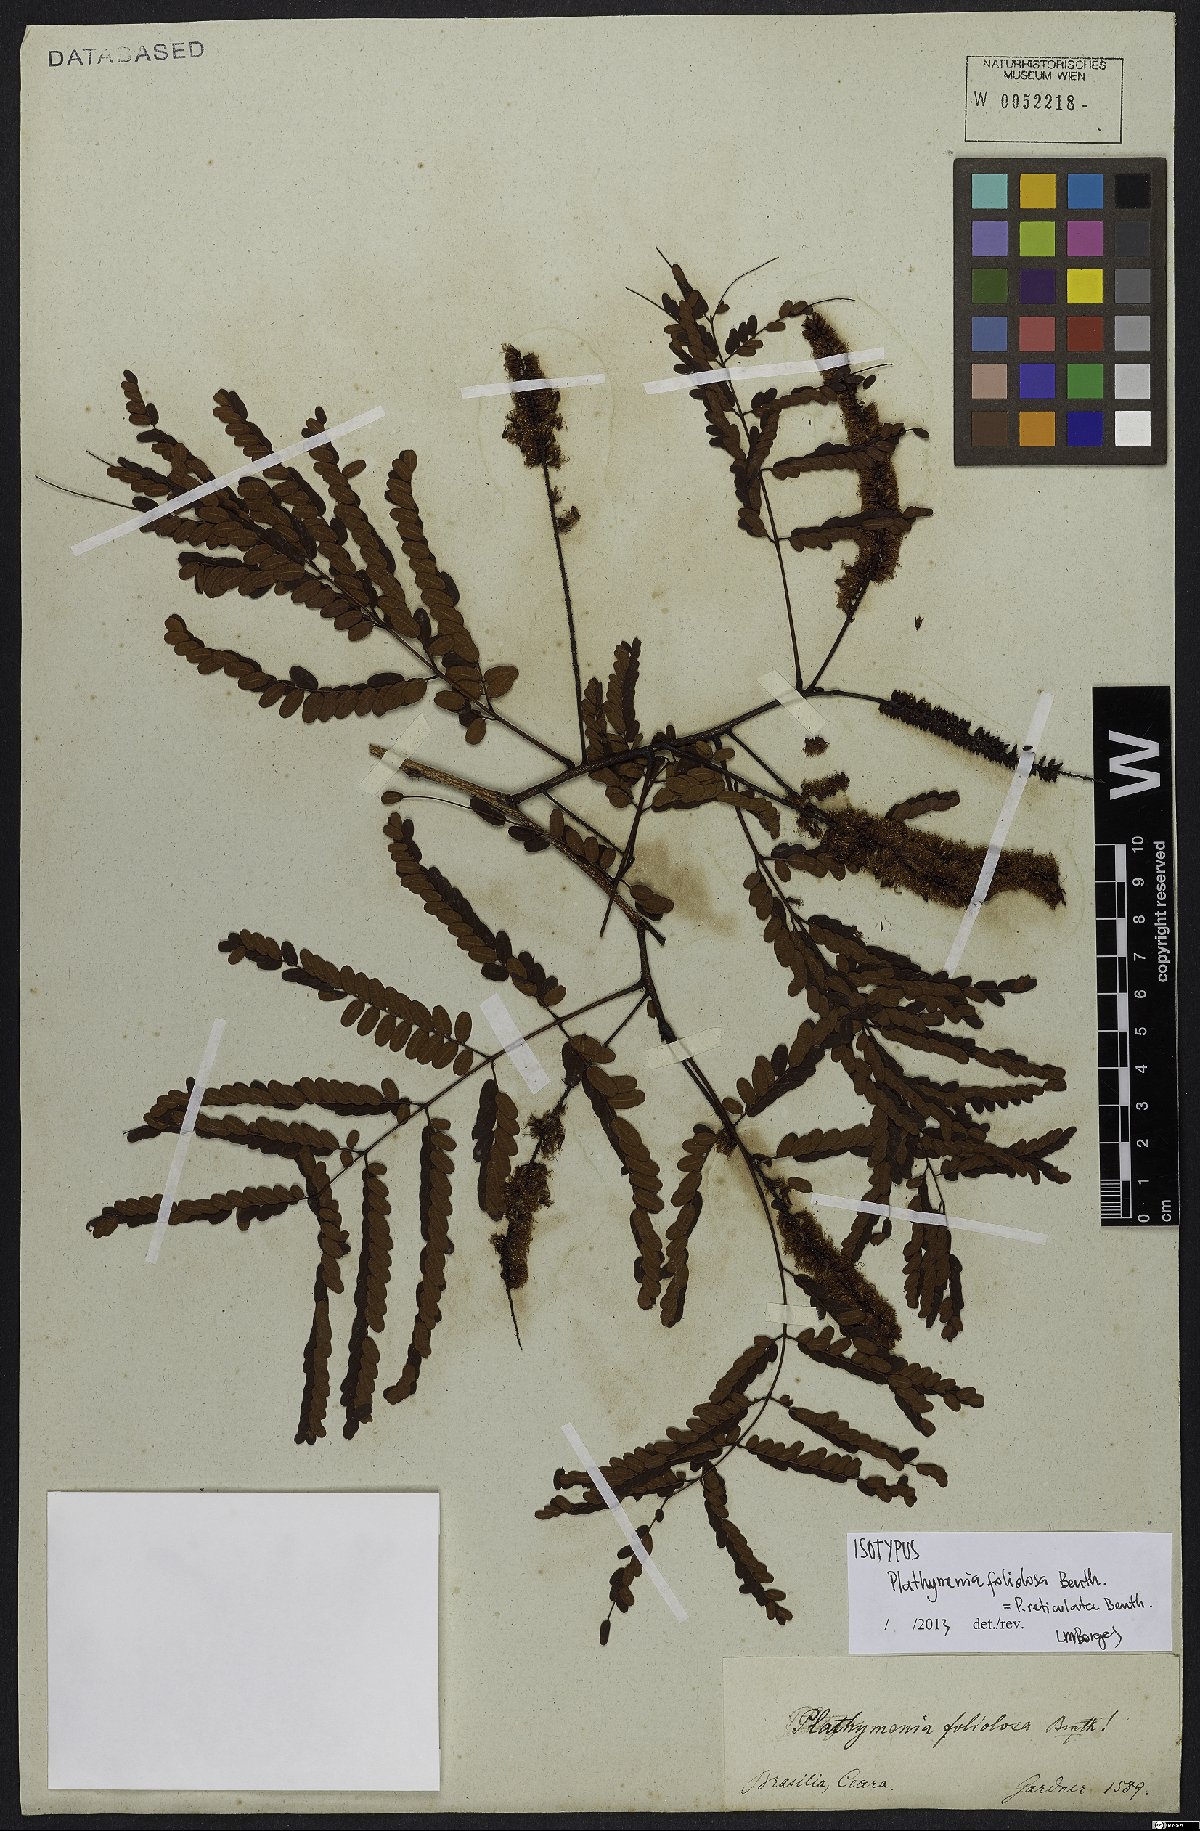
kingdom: Plantae
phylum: Tracheophyta
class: Magnoliopsida
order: Fabales
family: Fabaceae
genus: Plathymenia
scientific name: Plathymenia reticulata
